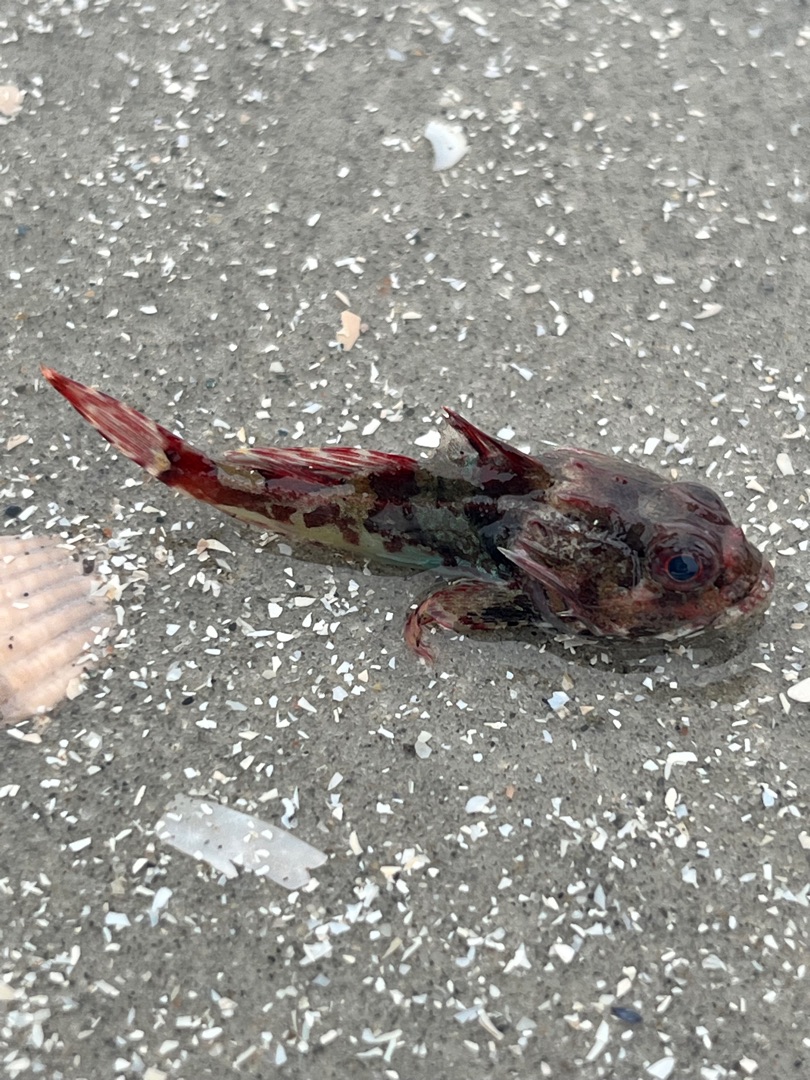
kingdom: Animalia
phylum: Chordata
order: Scorpaeniformes
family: Cottidae
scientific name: Cottidae
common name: Ulkefamilien
